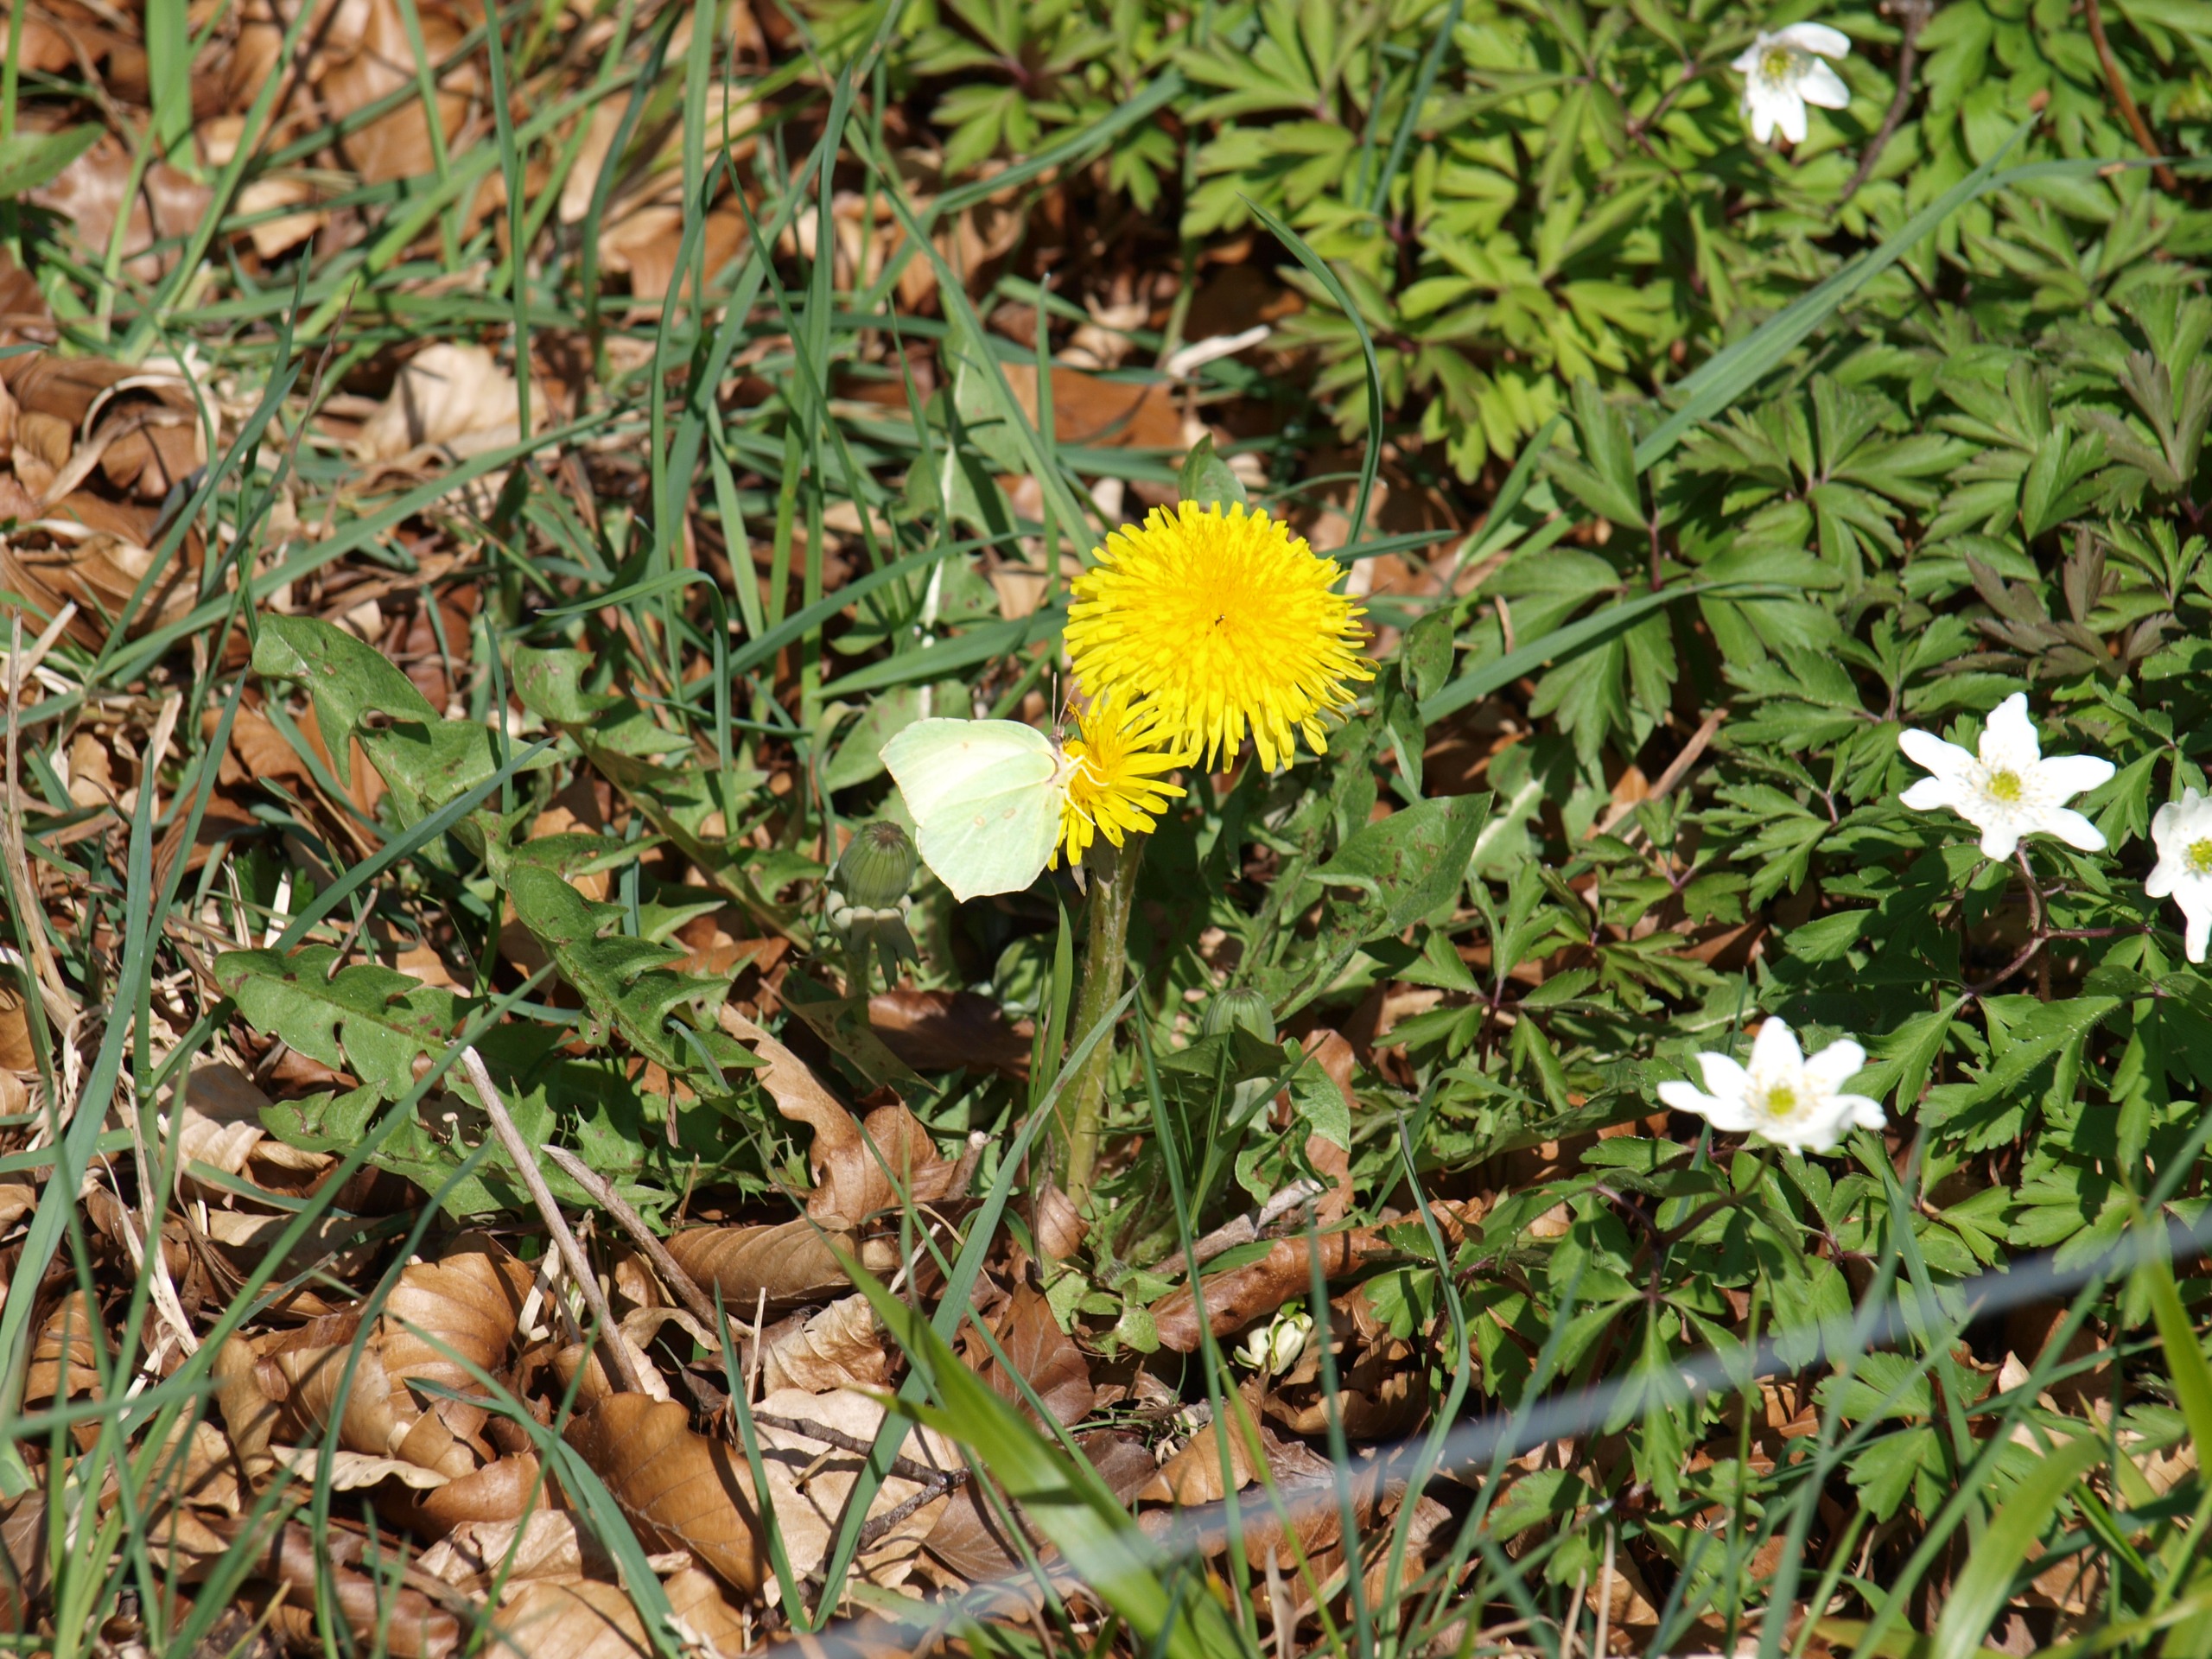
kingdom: Animalia
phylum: Arthropoda
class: Insecta
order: Lepidoptera
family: Pieridae
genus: Gonepteryx
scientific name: Gonepteryx rhamni
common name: Citronsommerfugl
